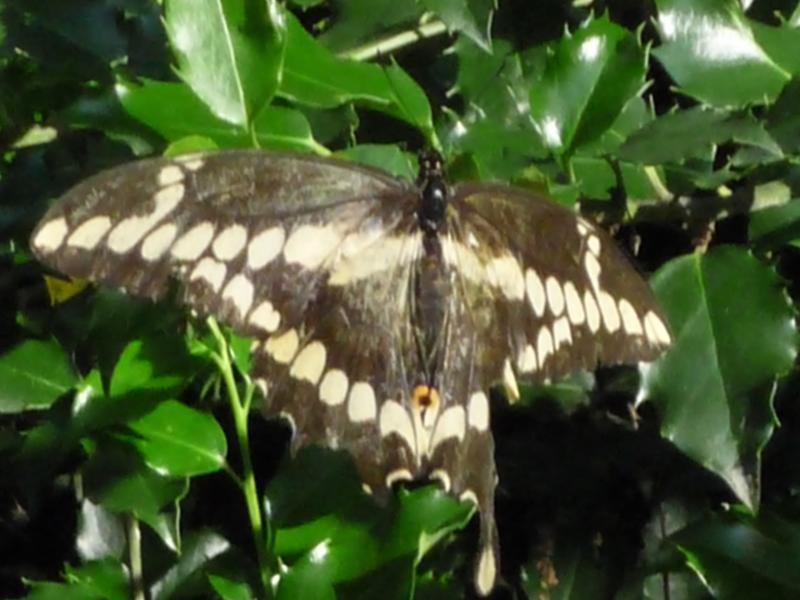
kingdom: Animalia
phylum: Arthropoda
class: Insecta
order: Lepidoptera
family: Papilionidae
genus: Papilio
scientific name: Papilio cresphontes
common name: Eastern Giant Swallowtail
